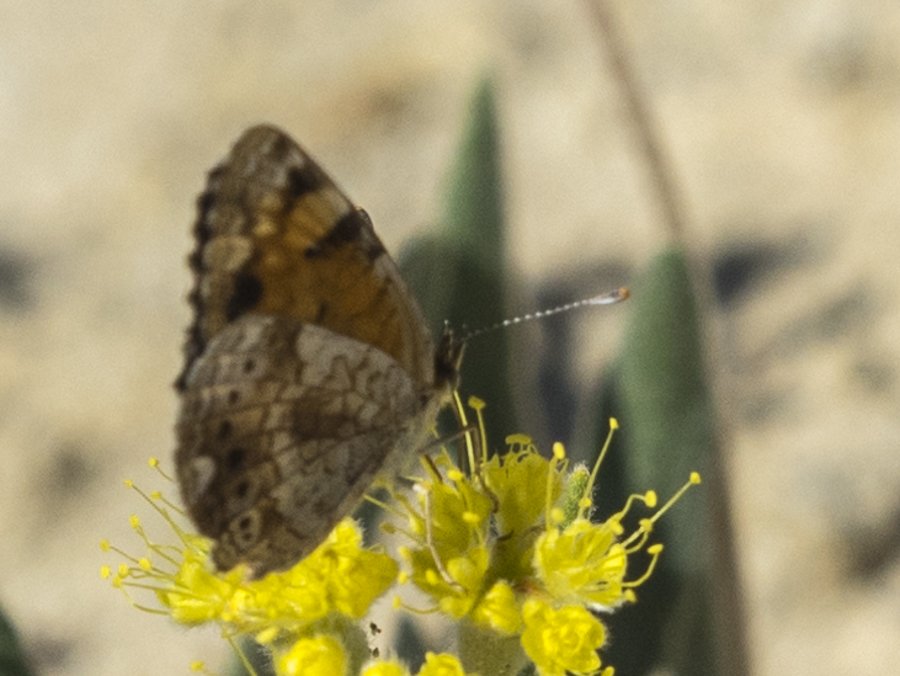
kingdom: Animalia
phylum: Arthropoda
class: Insecta
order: Lepidoptera
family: Nymphalidae
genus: Phyciodes
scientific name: Phyciodes tharos
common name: Pearl Crescent
